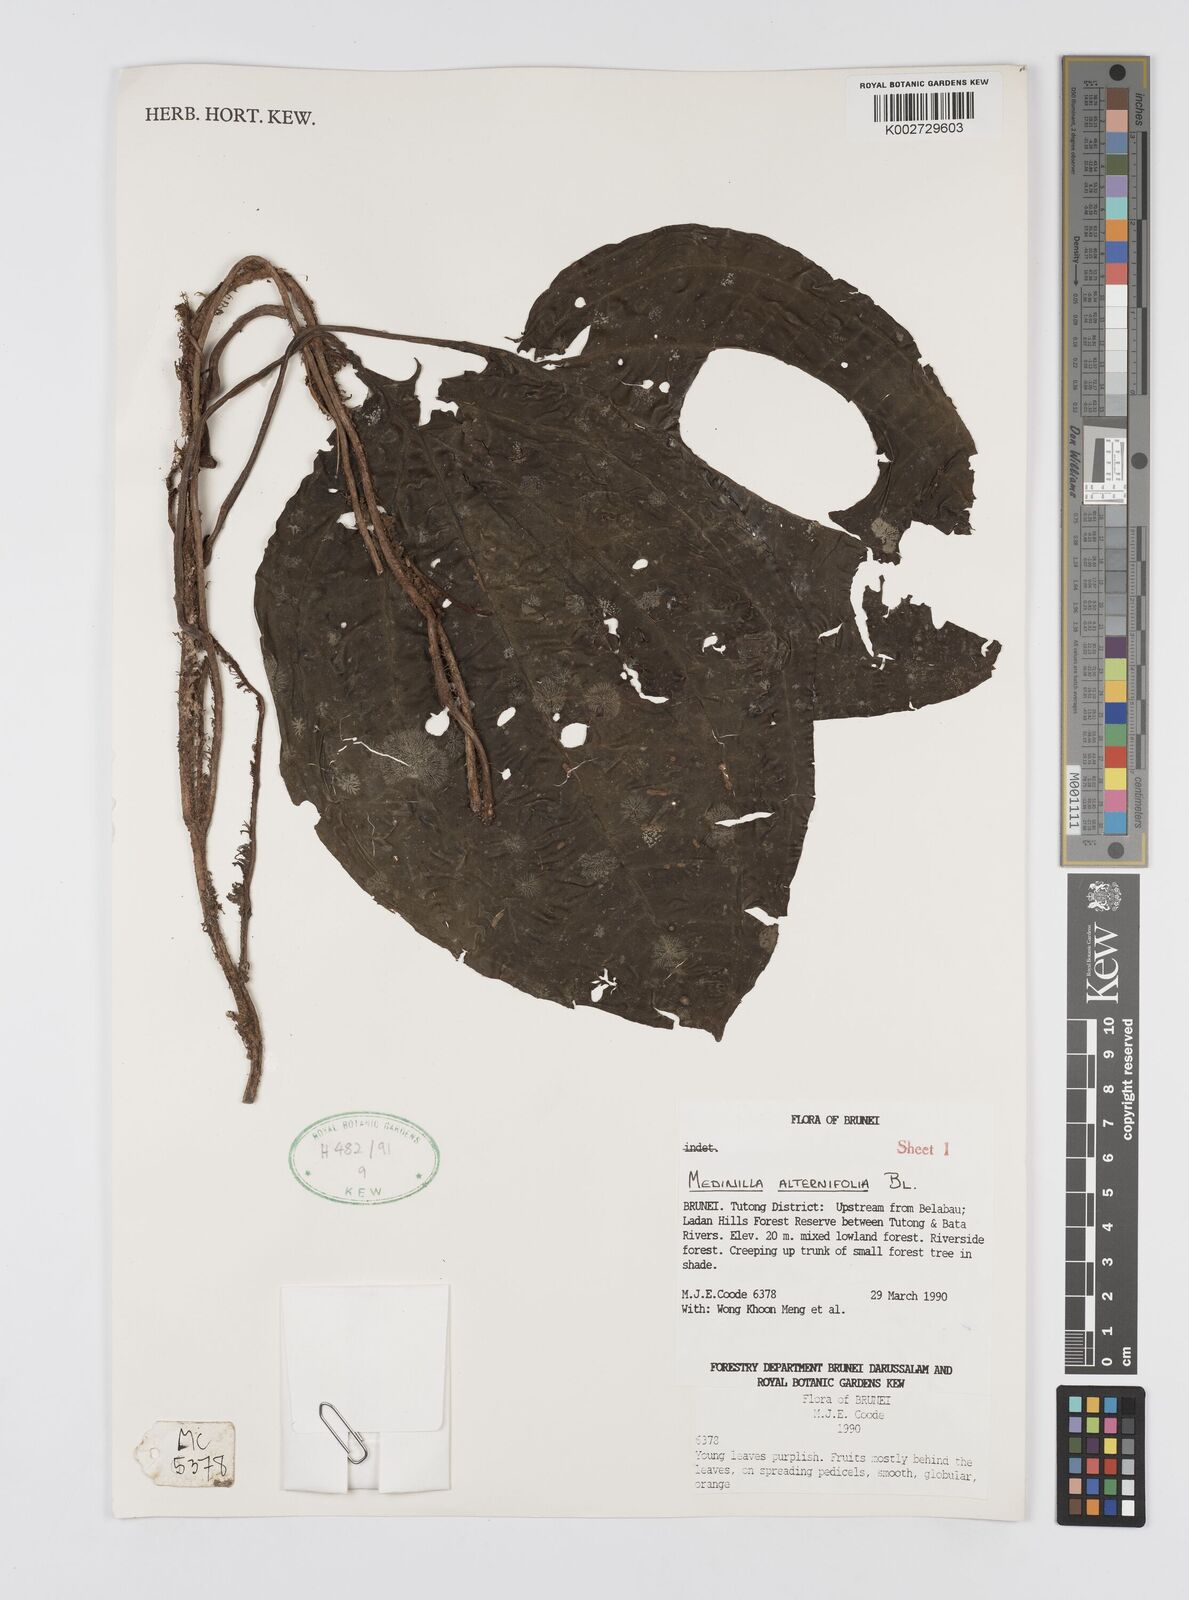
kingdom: Plantae
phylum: Tracheophyta
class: Magnoliopsida
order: Myrtales
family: Melastomataceae
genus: Heteroblemma
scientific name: Heteroblemma alternifolium
